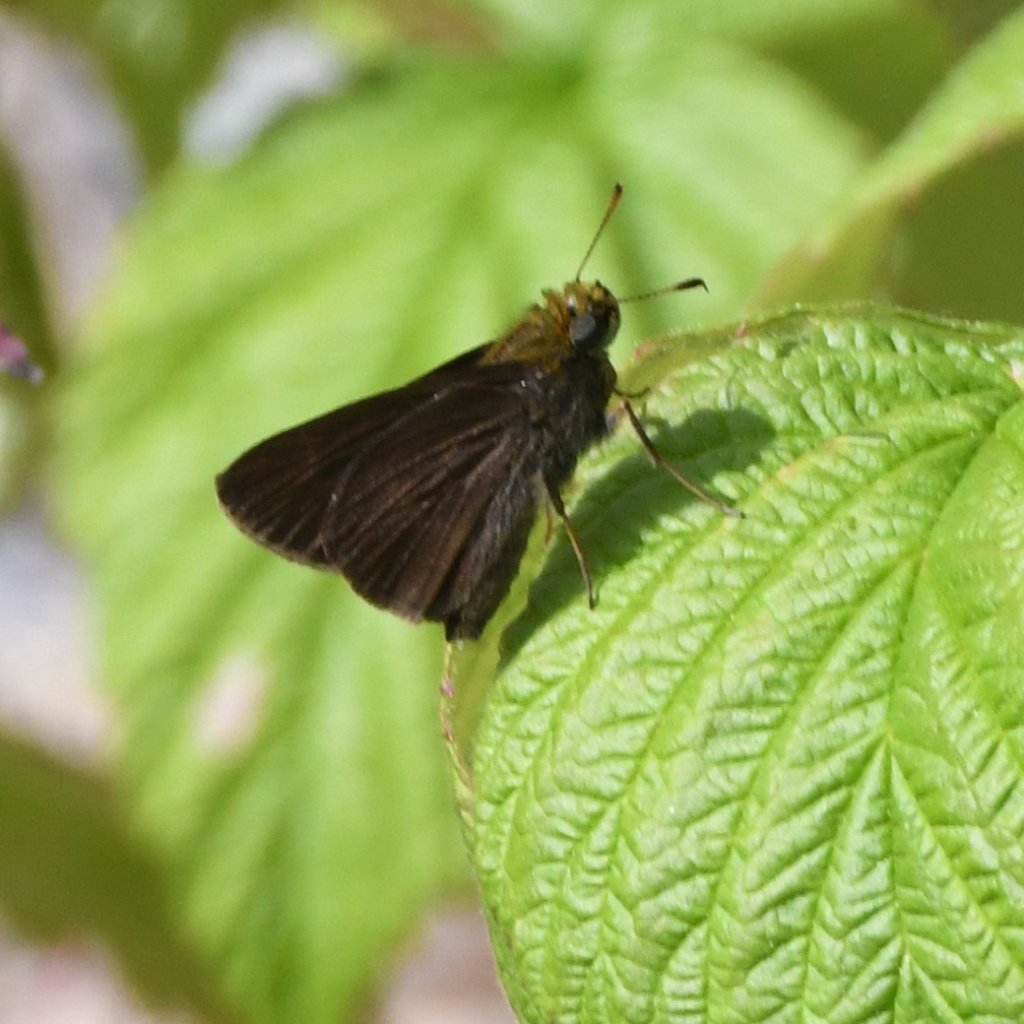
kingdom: Animalia
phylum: Arthropoda
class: Insecta
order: Lepidoptera
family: Hesperiidae
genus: Euphyes
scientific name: Euphyes vestris
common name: Dun Skipper
